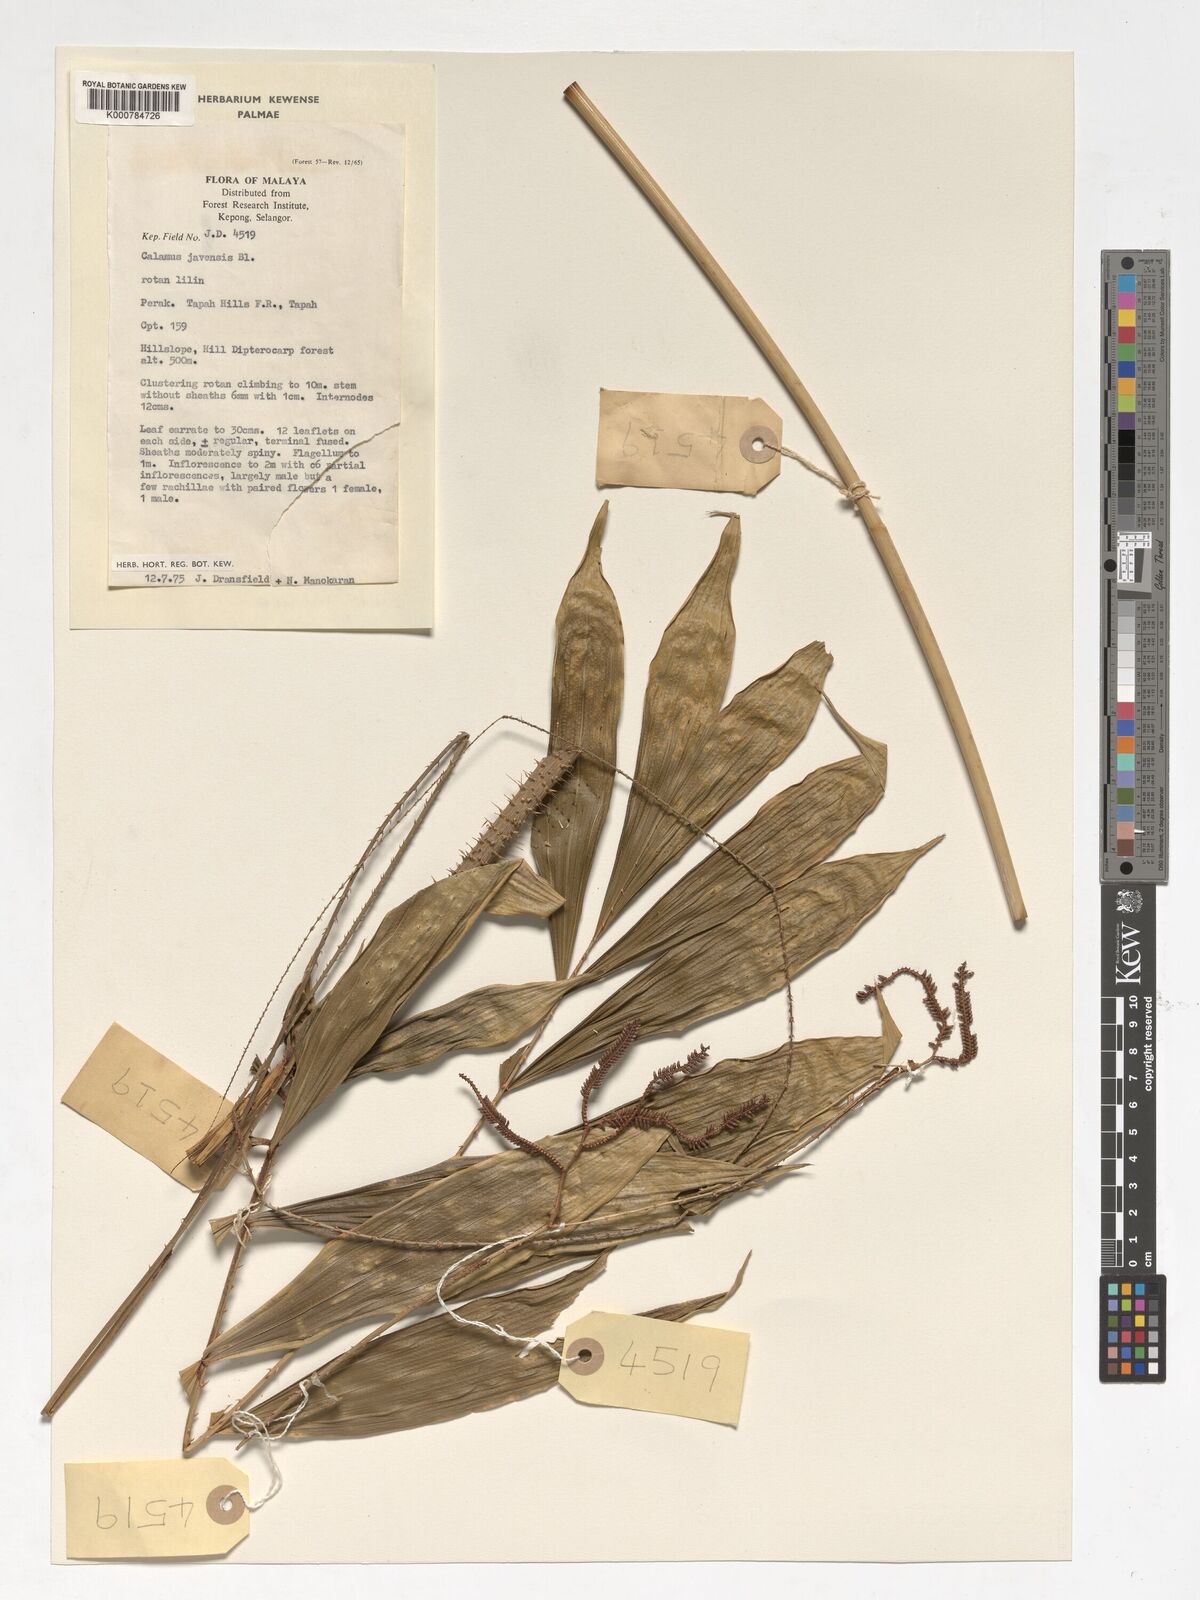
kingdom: Plantae
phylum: Tracheophyta
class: Liliopsida
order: Arecales
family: Arecaceae
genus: Calamus
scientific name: Calamus javensis
